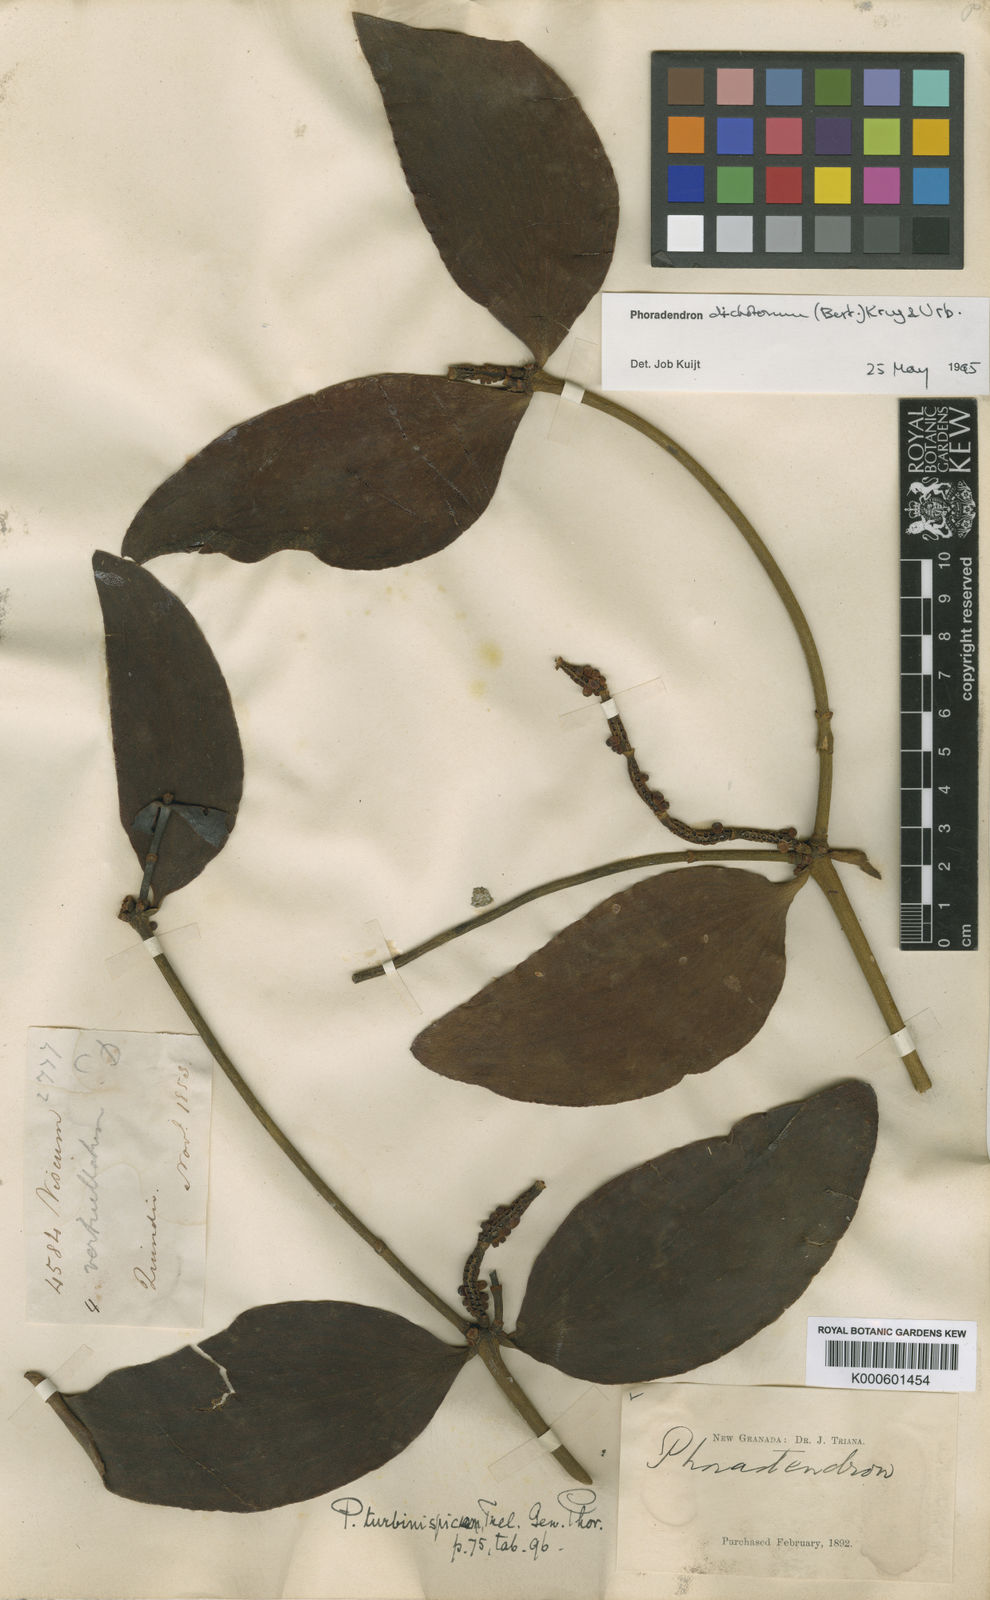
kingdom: Plantae
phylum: Tracheophyta
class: Magnoliopsida
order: Santalales
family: Viscaceae
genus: Phoradendron
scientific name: Phoradendron
